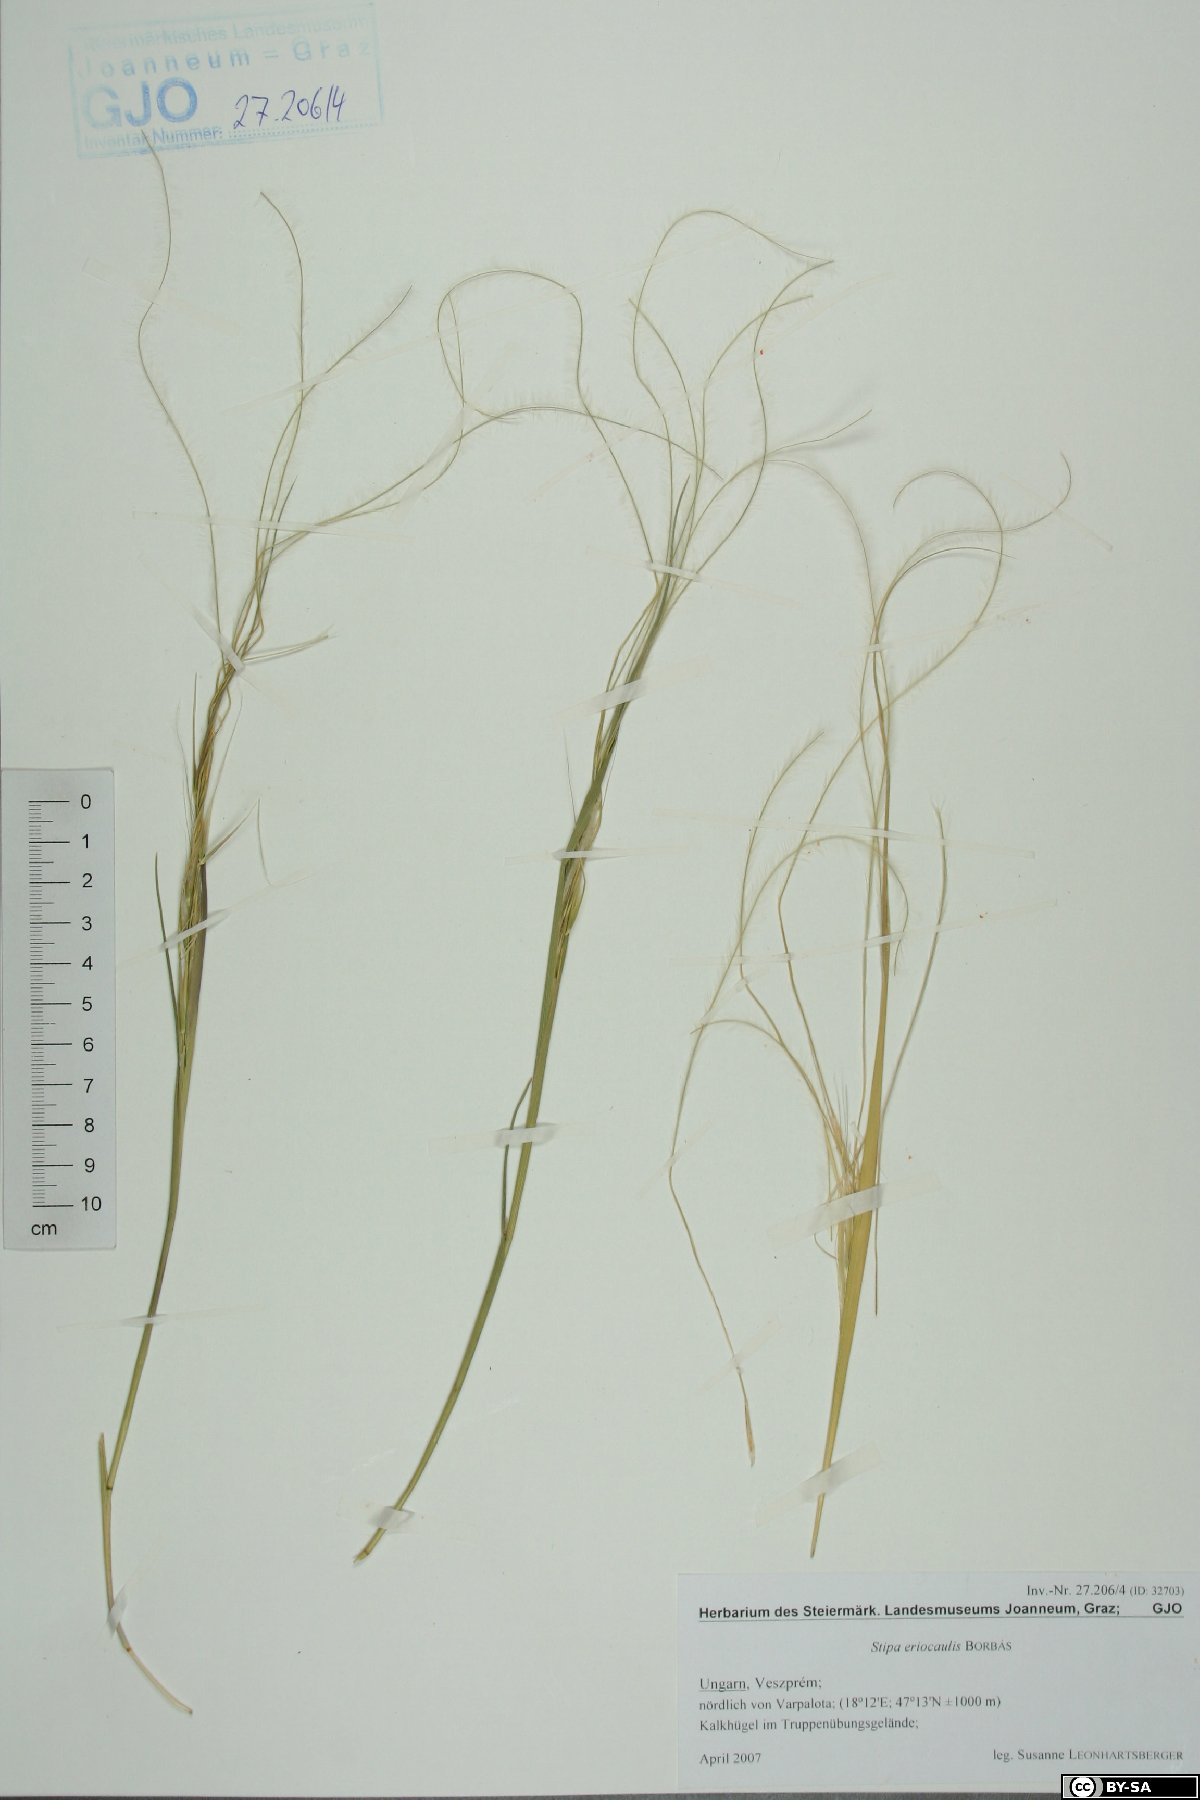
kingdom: Plantae
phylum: Tracheophyta
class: Liliopsida
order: Poales
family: Poaceae
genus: Stipa
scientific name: Stipa pennata
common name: European feather grass
